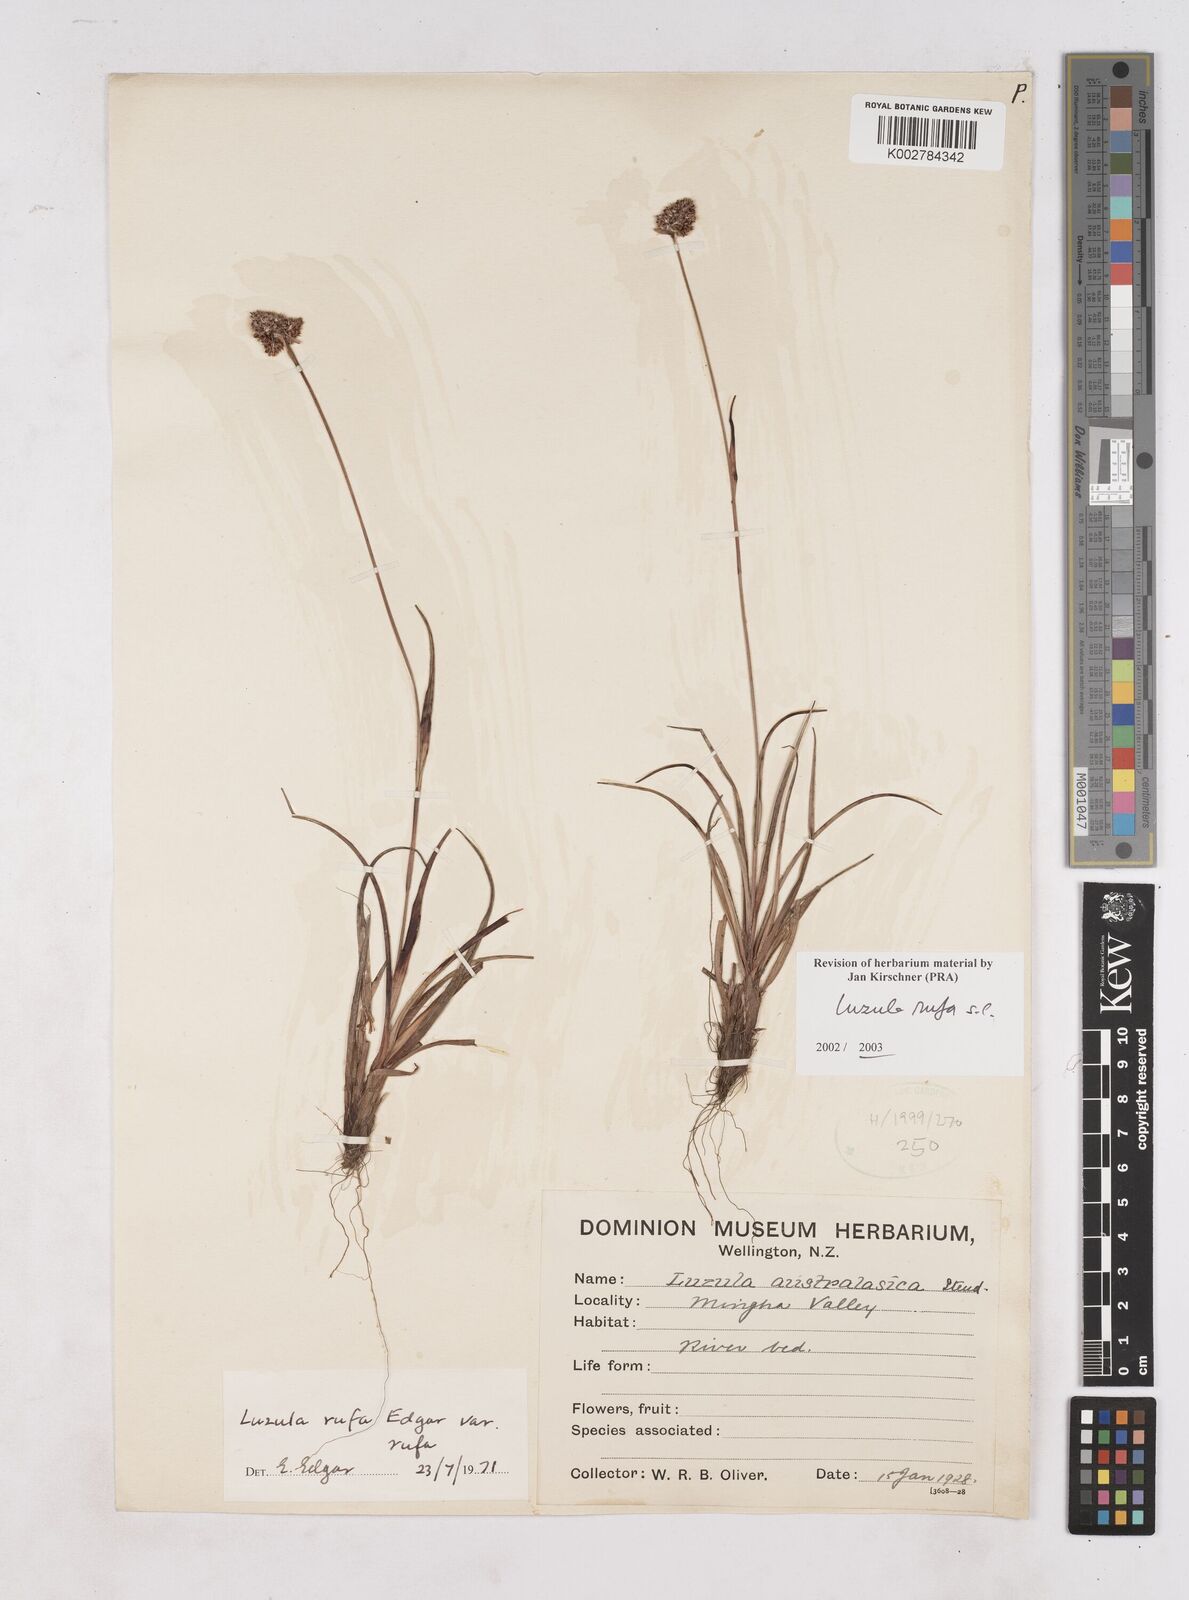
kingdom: Plantae
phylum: Tracheophyta
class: Liliopsida
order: Poales
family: Juncaceae
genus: Luzula
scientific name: Luzula rufa
